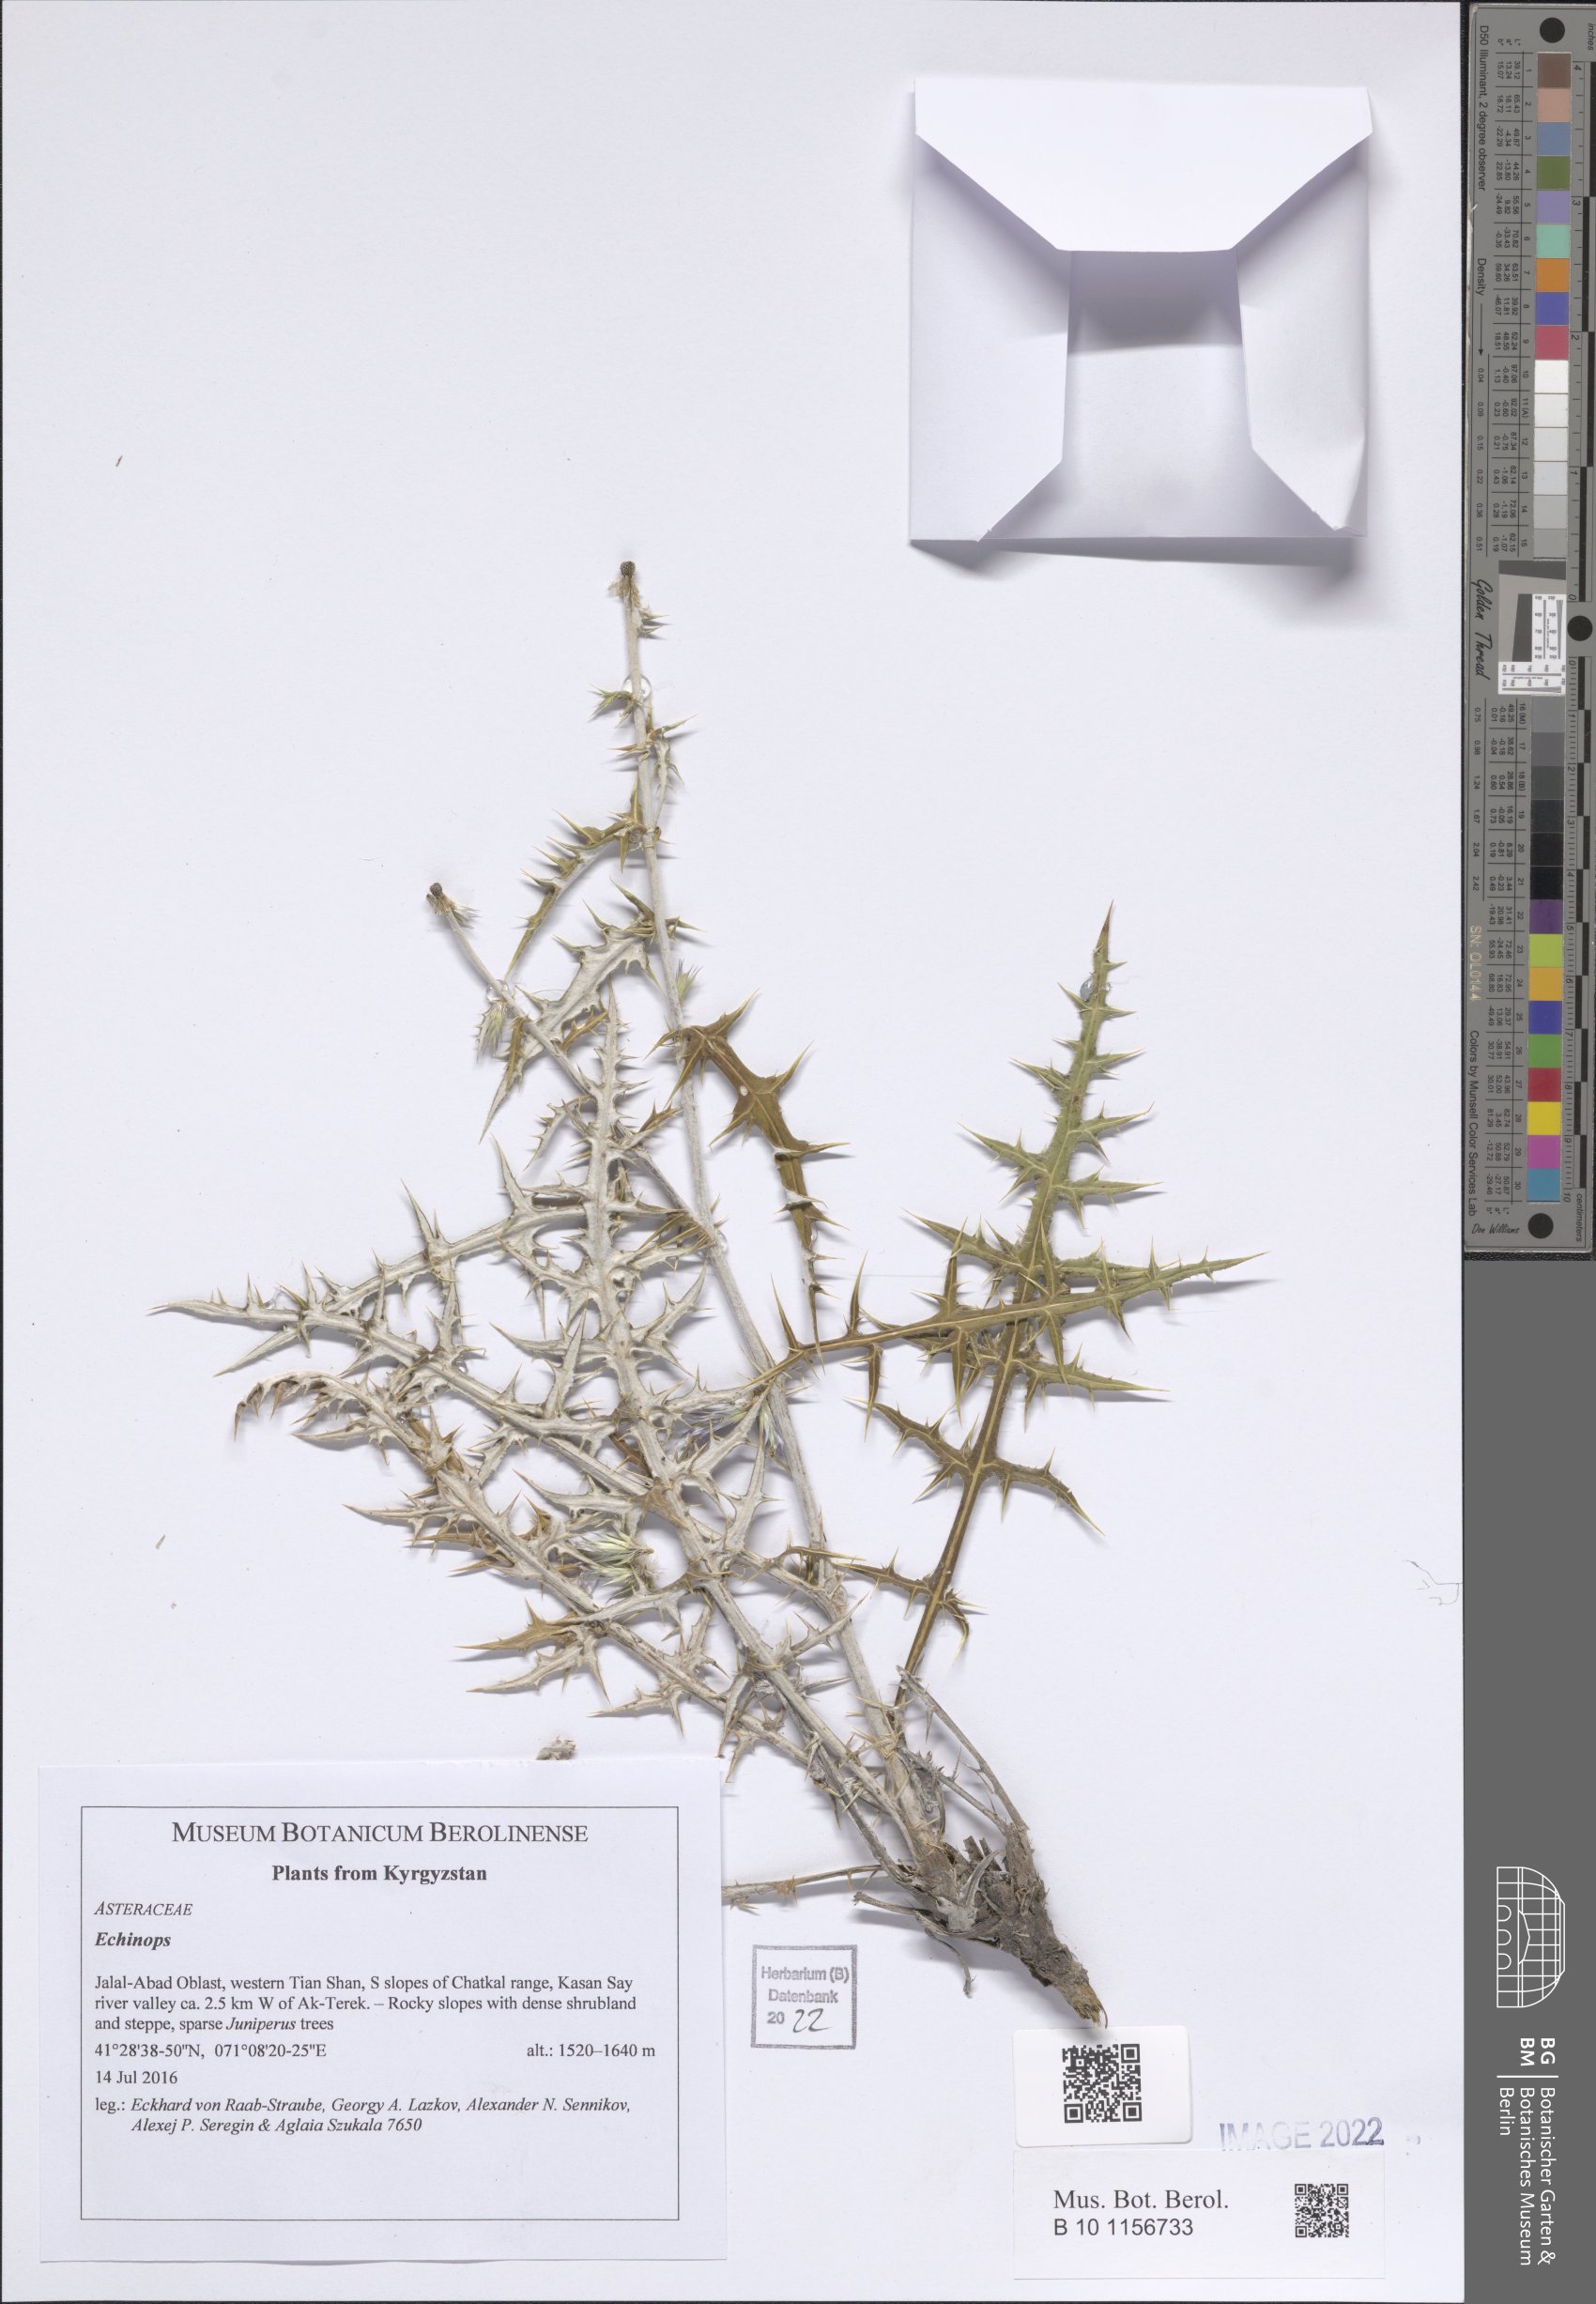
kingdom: Plantae
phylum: Tracheophyta
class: Magnoliopsida
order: Asterales
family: Asteraceae
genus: Echinops
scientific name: Echinops
